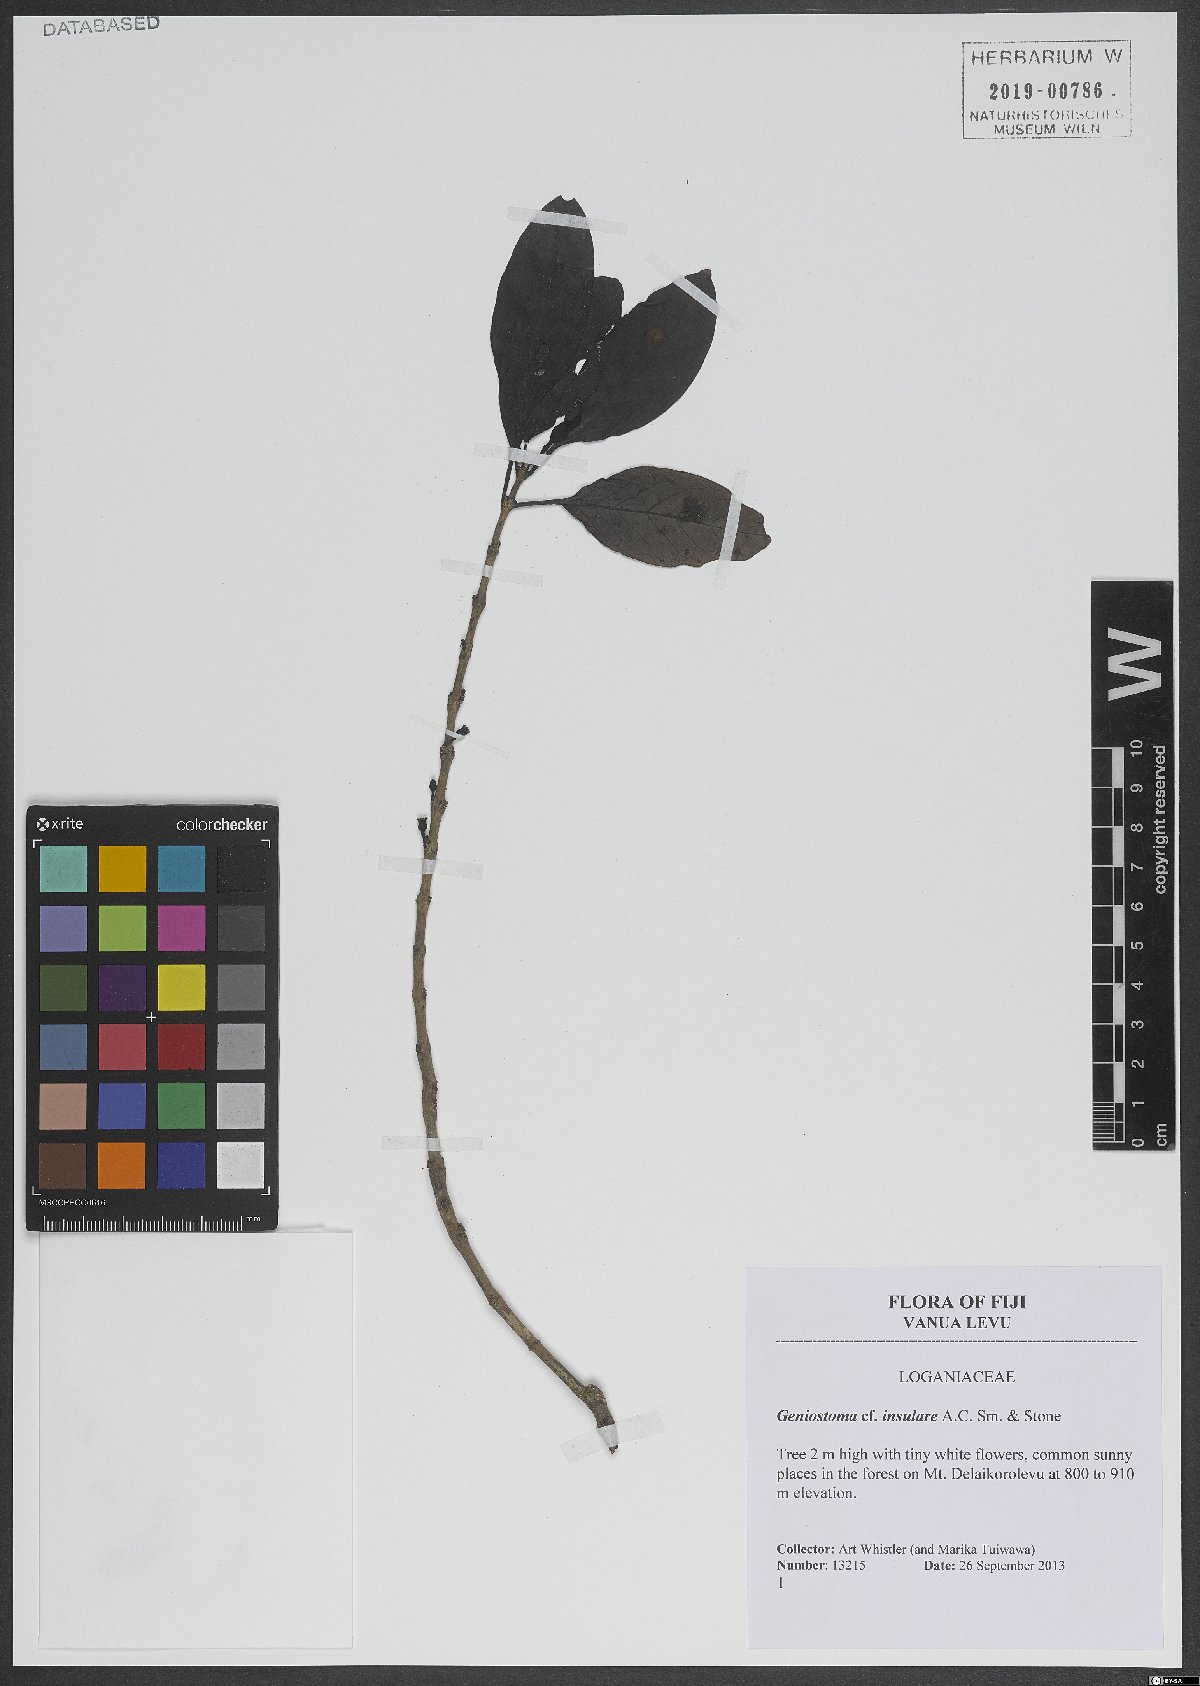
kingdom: Plantae
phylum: Tracheophyta
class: Magnoliopsida
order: Gentianales
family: Loganiaceae
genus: Geniostoma
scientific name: Geniostoma rupestre
